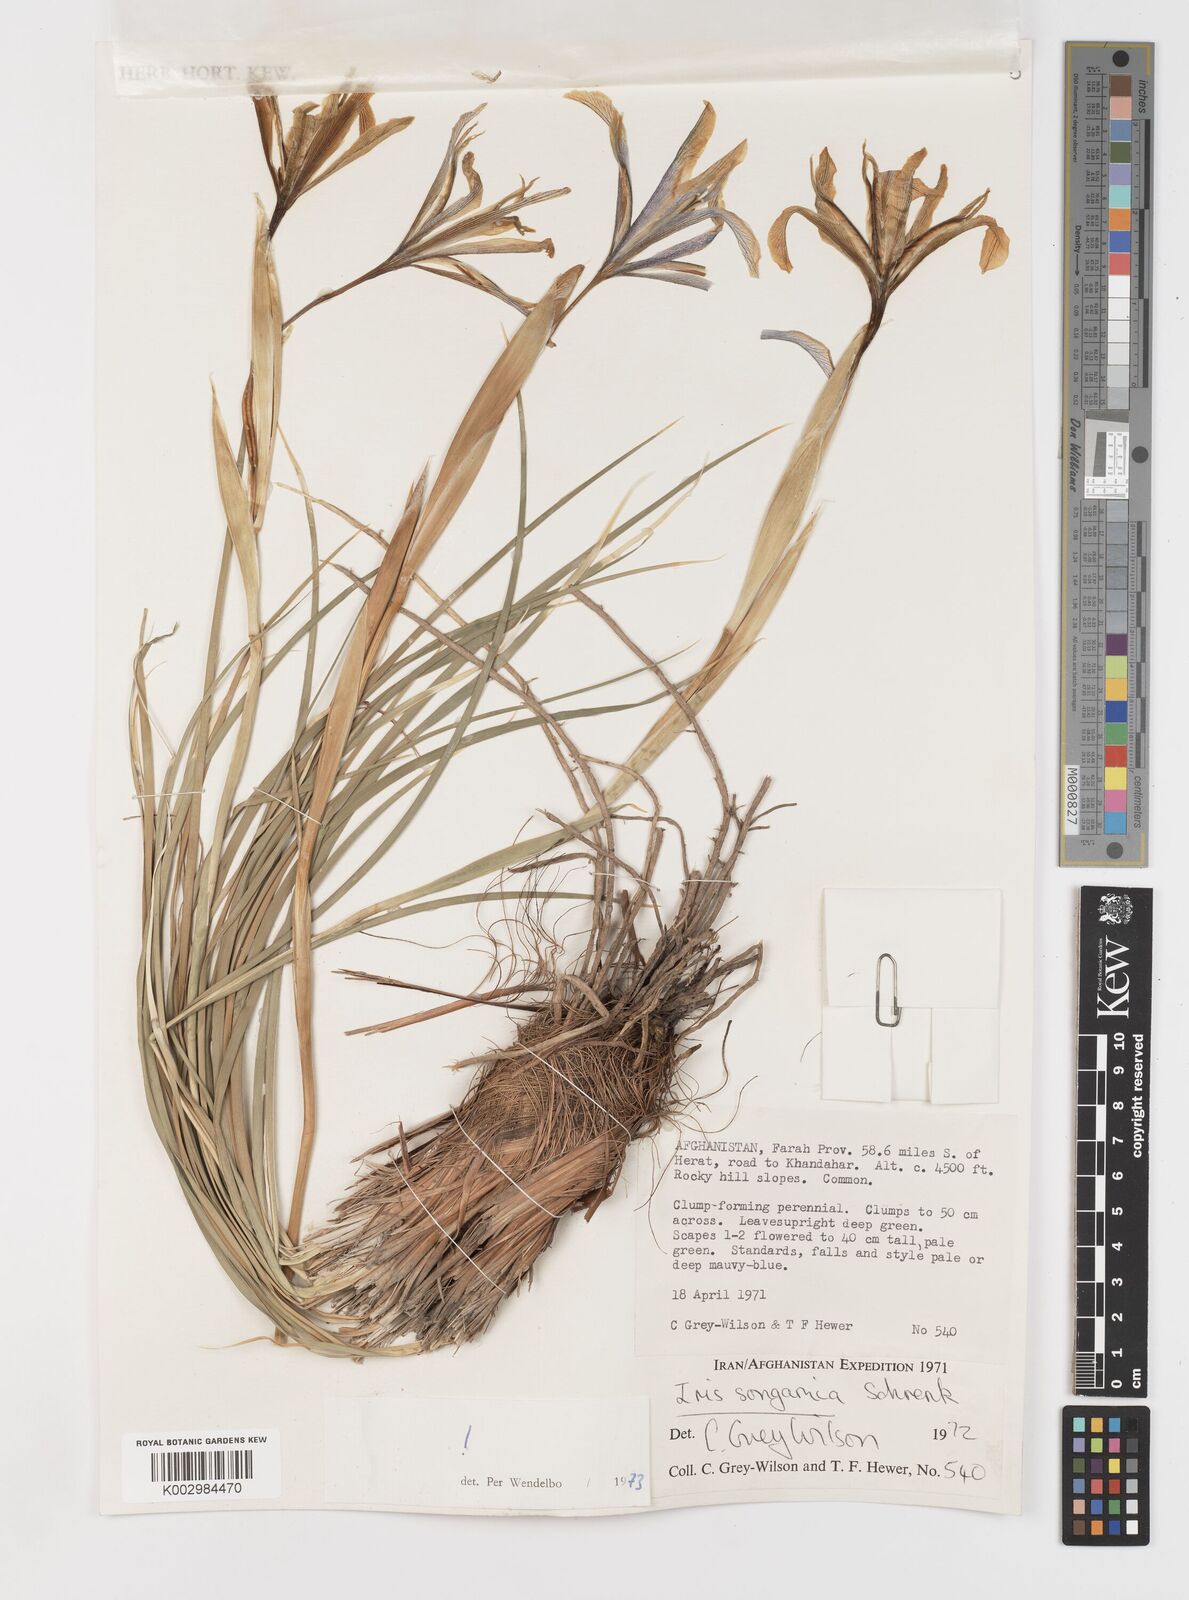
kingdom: Plantae
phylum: Tracheophyta
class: Liliopsida
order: Asparagales
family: Iridaceae
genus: Iris
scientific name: Iris songarica
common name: Songar iris
